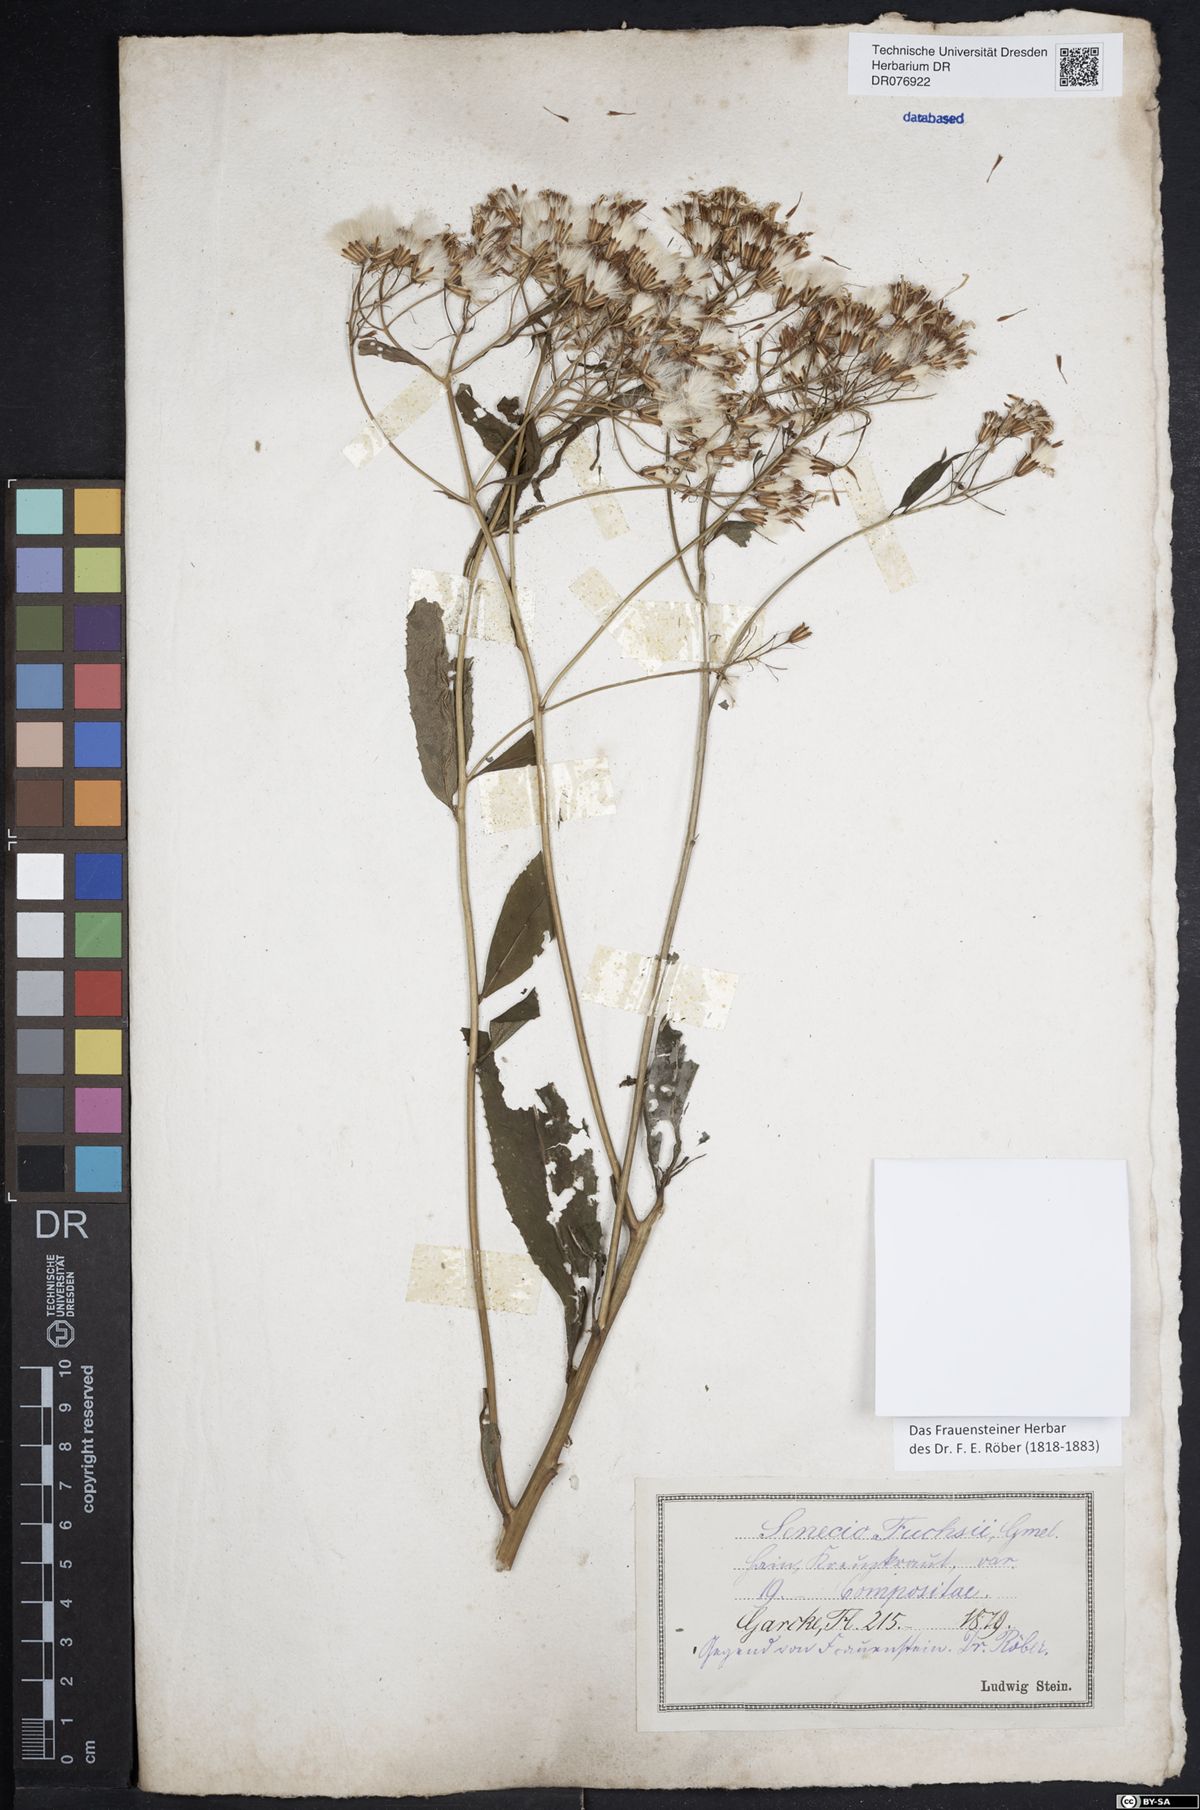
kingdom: Plantae
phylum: Tracheophyta
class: Magnoliopsida
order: Asterales
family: Asteraceae
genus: Senecio
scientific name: Senecio ovatus
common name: Wood ragwort
